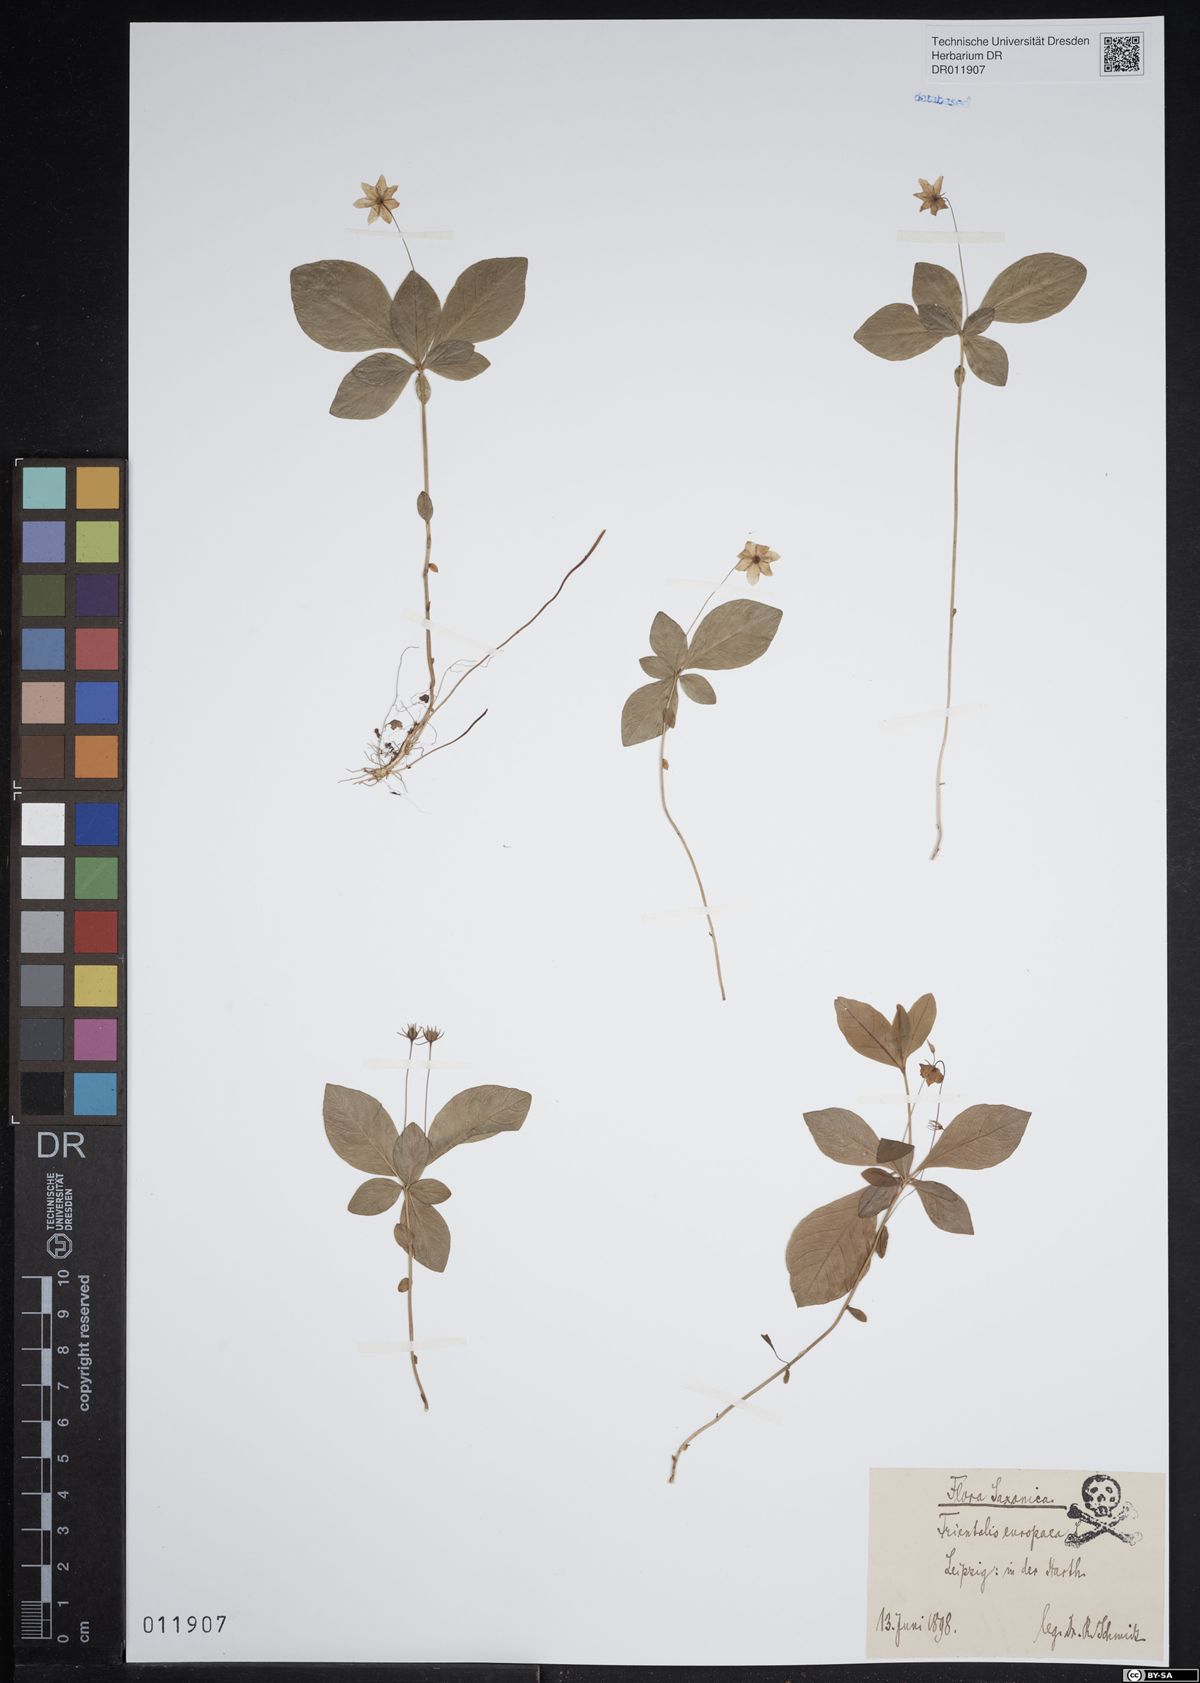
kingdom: Plantae
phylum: Tracheophyta
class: Magnoliopsida
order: Ericales
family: Primulaceae
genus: Lysimachia
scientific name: Lysimachia europaea
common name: Arctic starflower
